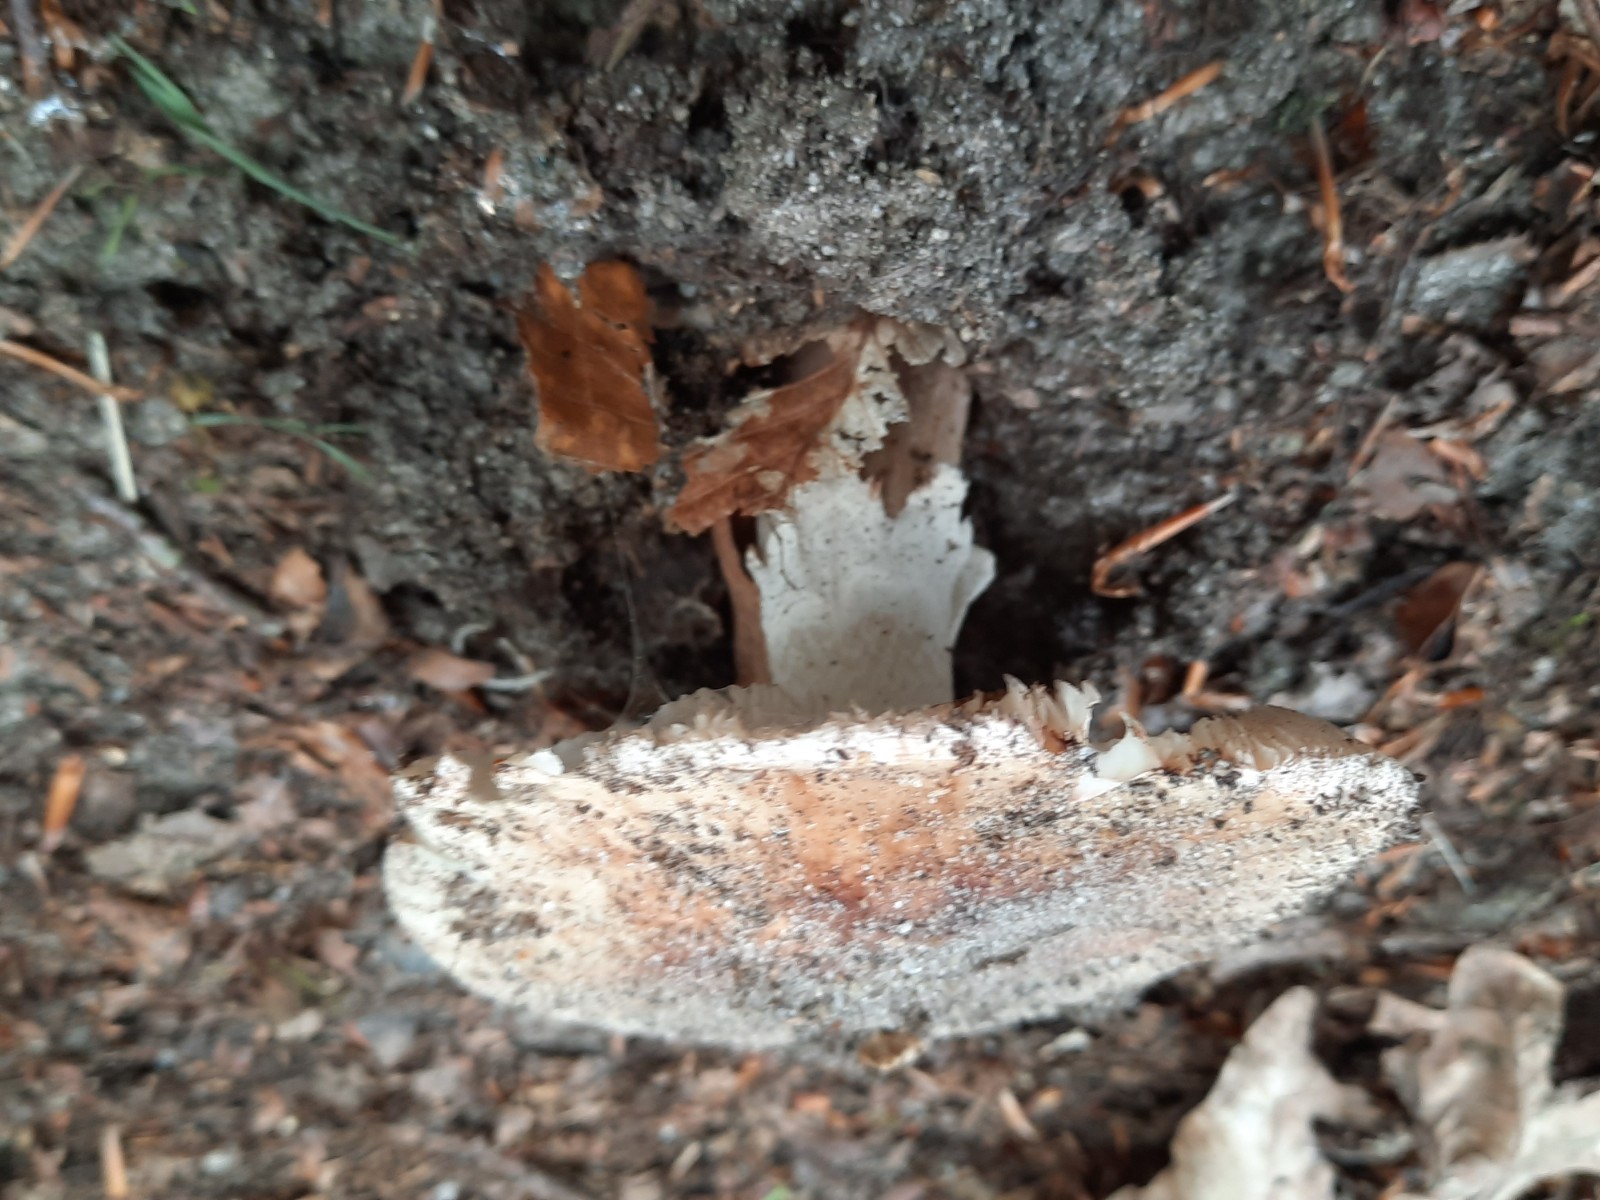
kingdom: Fungi
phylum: Basidiomycota
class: Agaricomycetes
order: Agaricales
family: Amanitaceae
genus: Amanita
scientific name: Amanita rubescens
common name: rødmende fluesvamp
